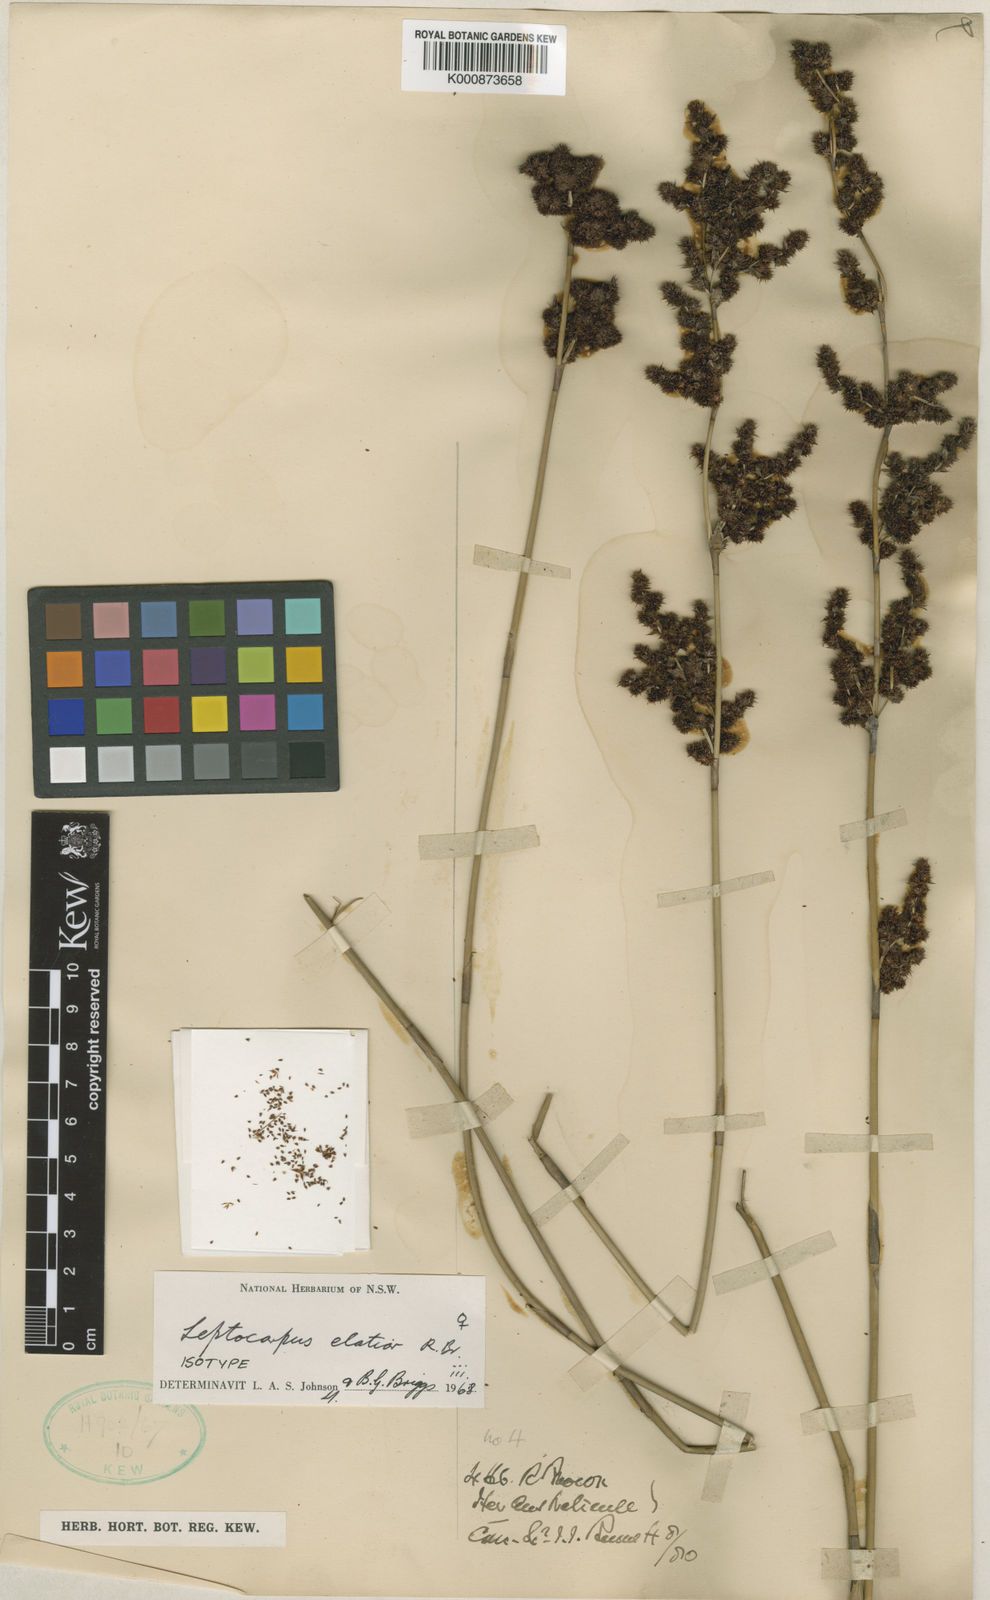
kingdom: Plantae
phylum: Tracheophyta
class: Liliopsida
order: Poales
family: Restionaceae
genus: Dapsilanthus
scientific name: Dapsilanthus elatior
